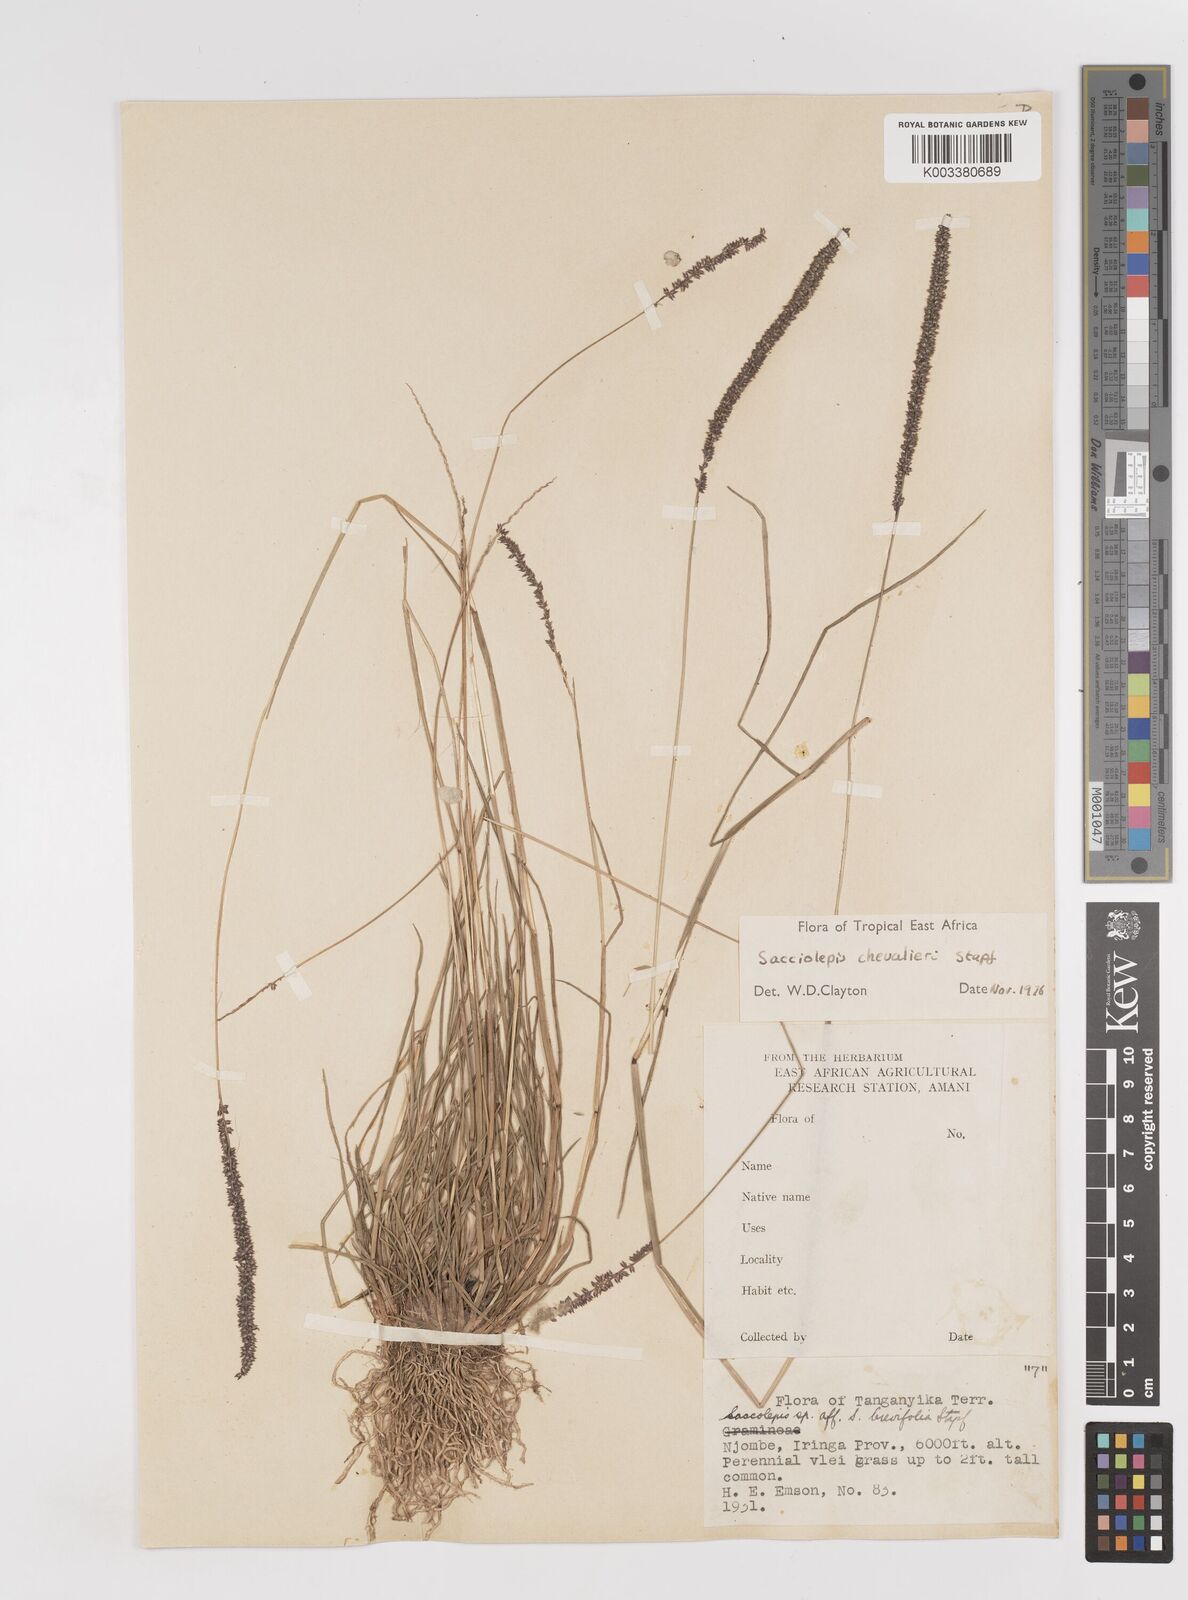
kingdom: Plantae
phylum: Tracheophyta
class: Liliopsida
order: Poales
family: Poaceae
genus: Sacciolepis
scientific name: Sacciolepis chevalieri
